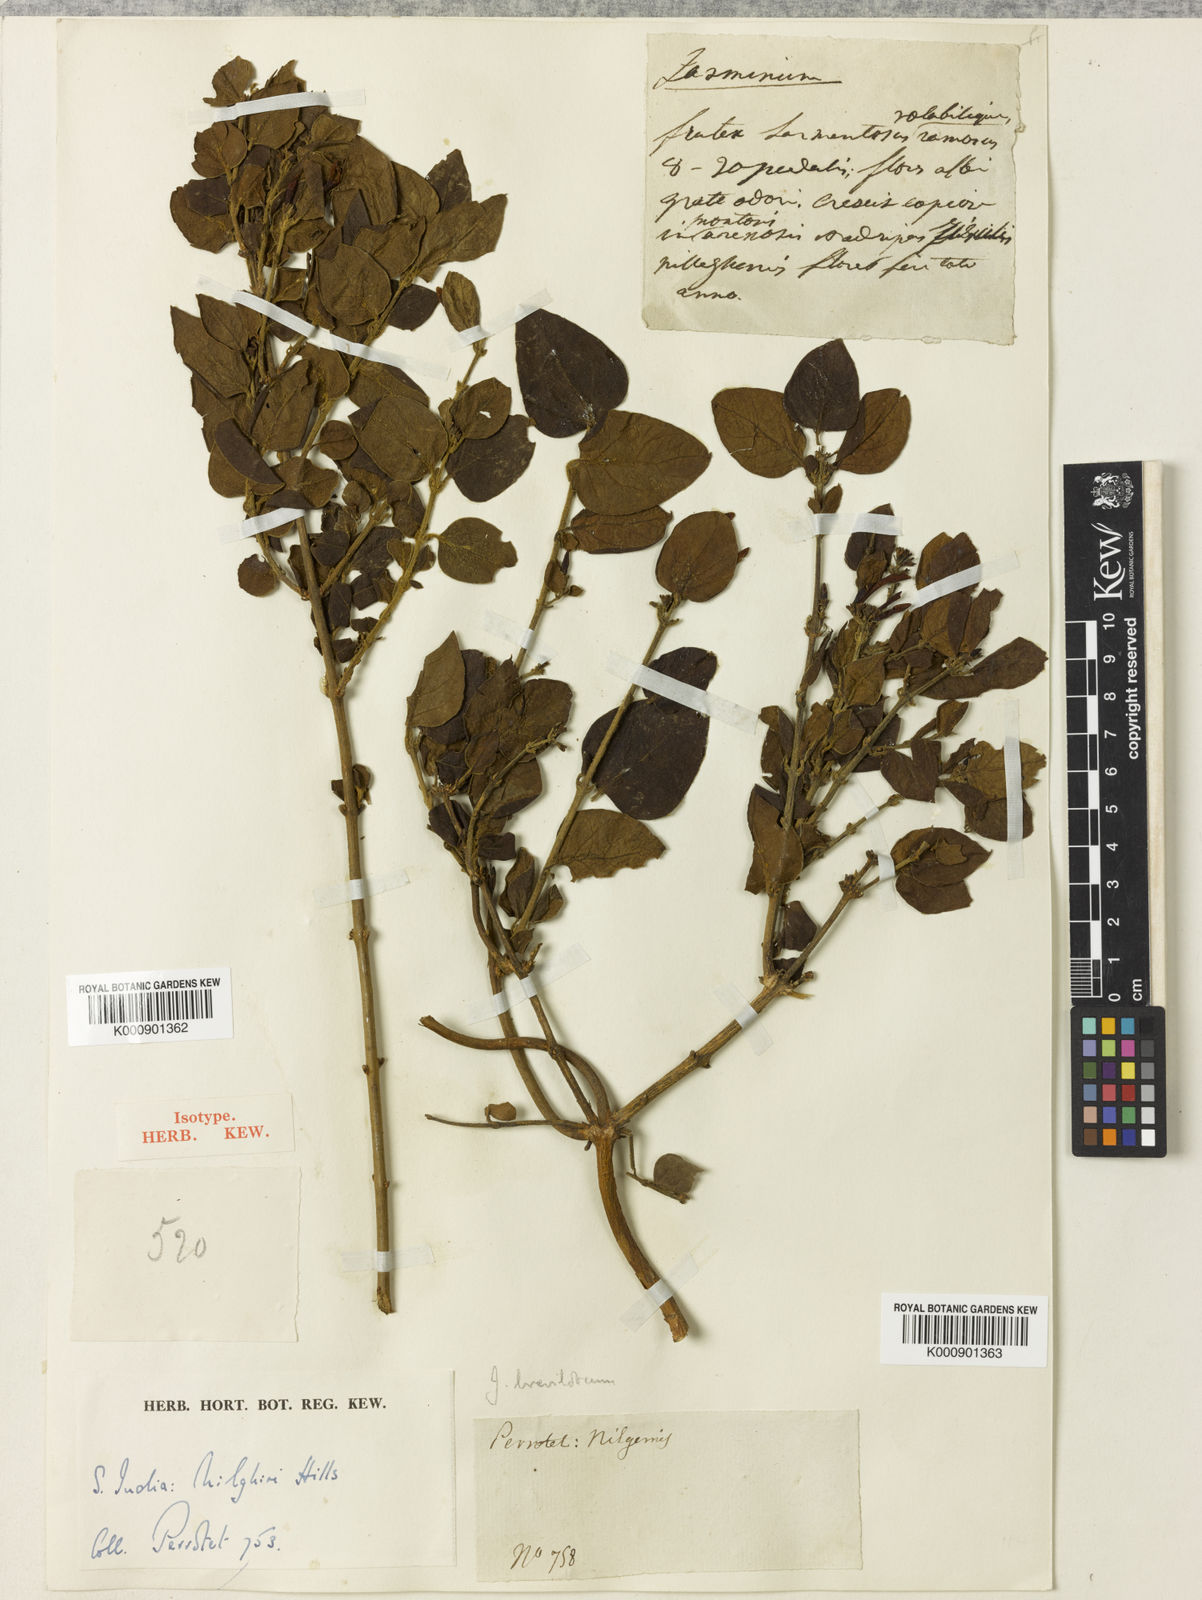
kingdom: Plantae
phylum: Tracheophyta
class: Magnoliopsida
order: Lamiales
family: Oleaceae
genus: Jasminum
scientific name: Jasminum brevilobum
